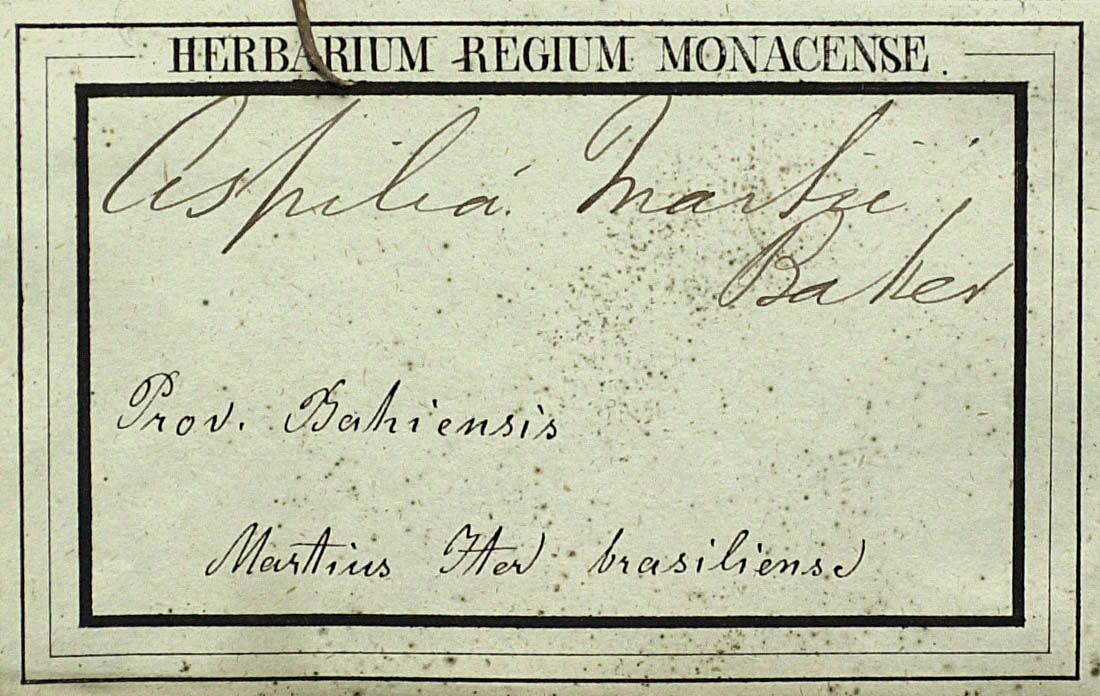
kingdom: Plantae
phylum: Tracheophyta
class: Magnoliopsida
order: Asterales
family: Asteraceae
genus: Wedelia
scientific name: Wedelia martii
